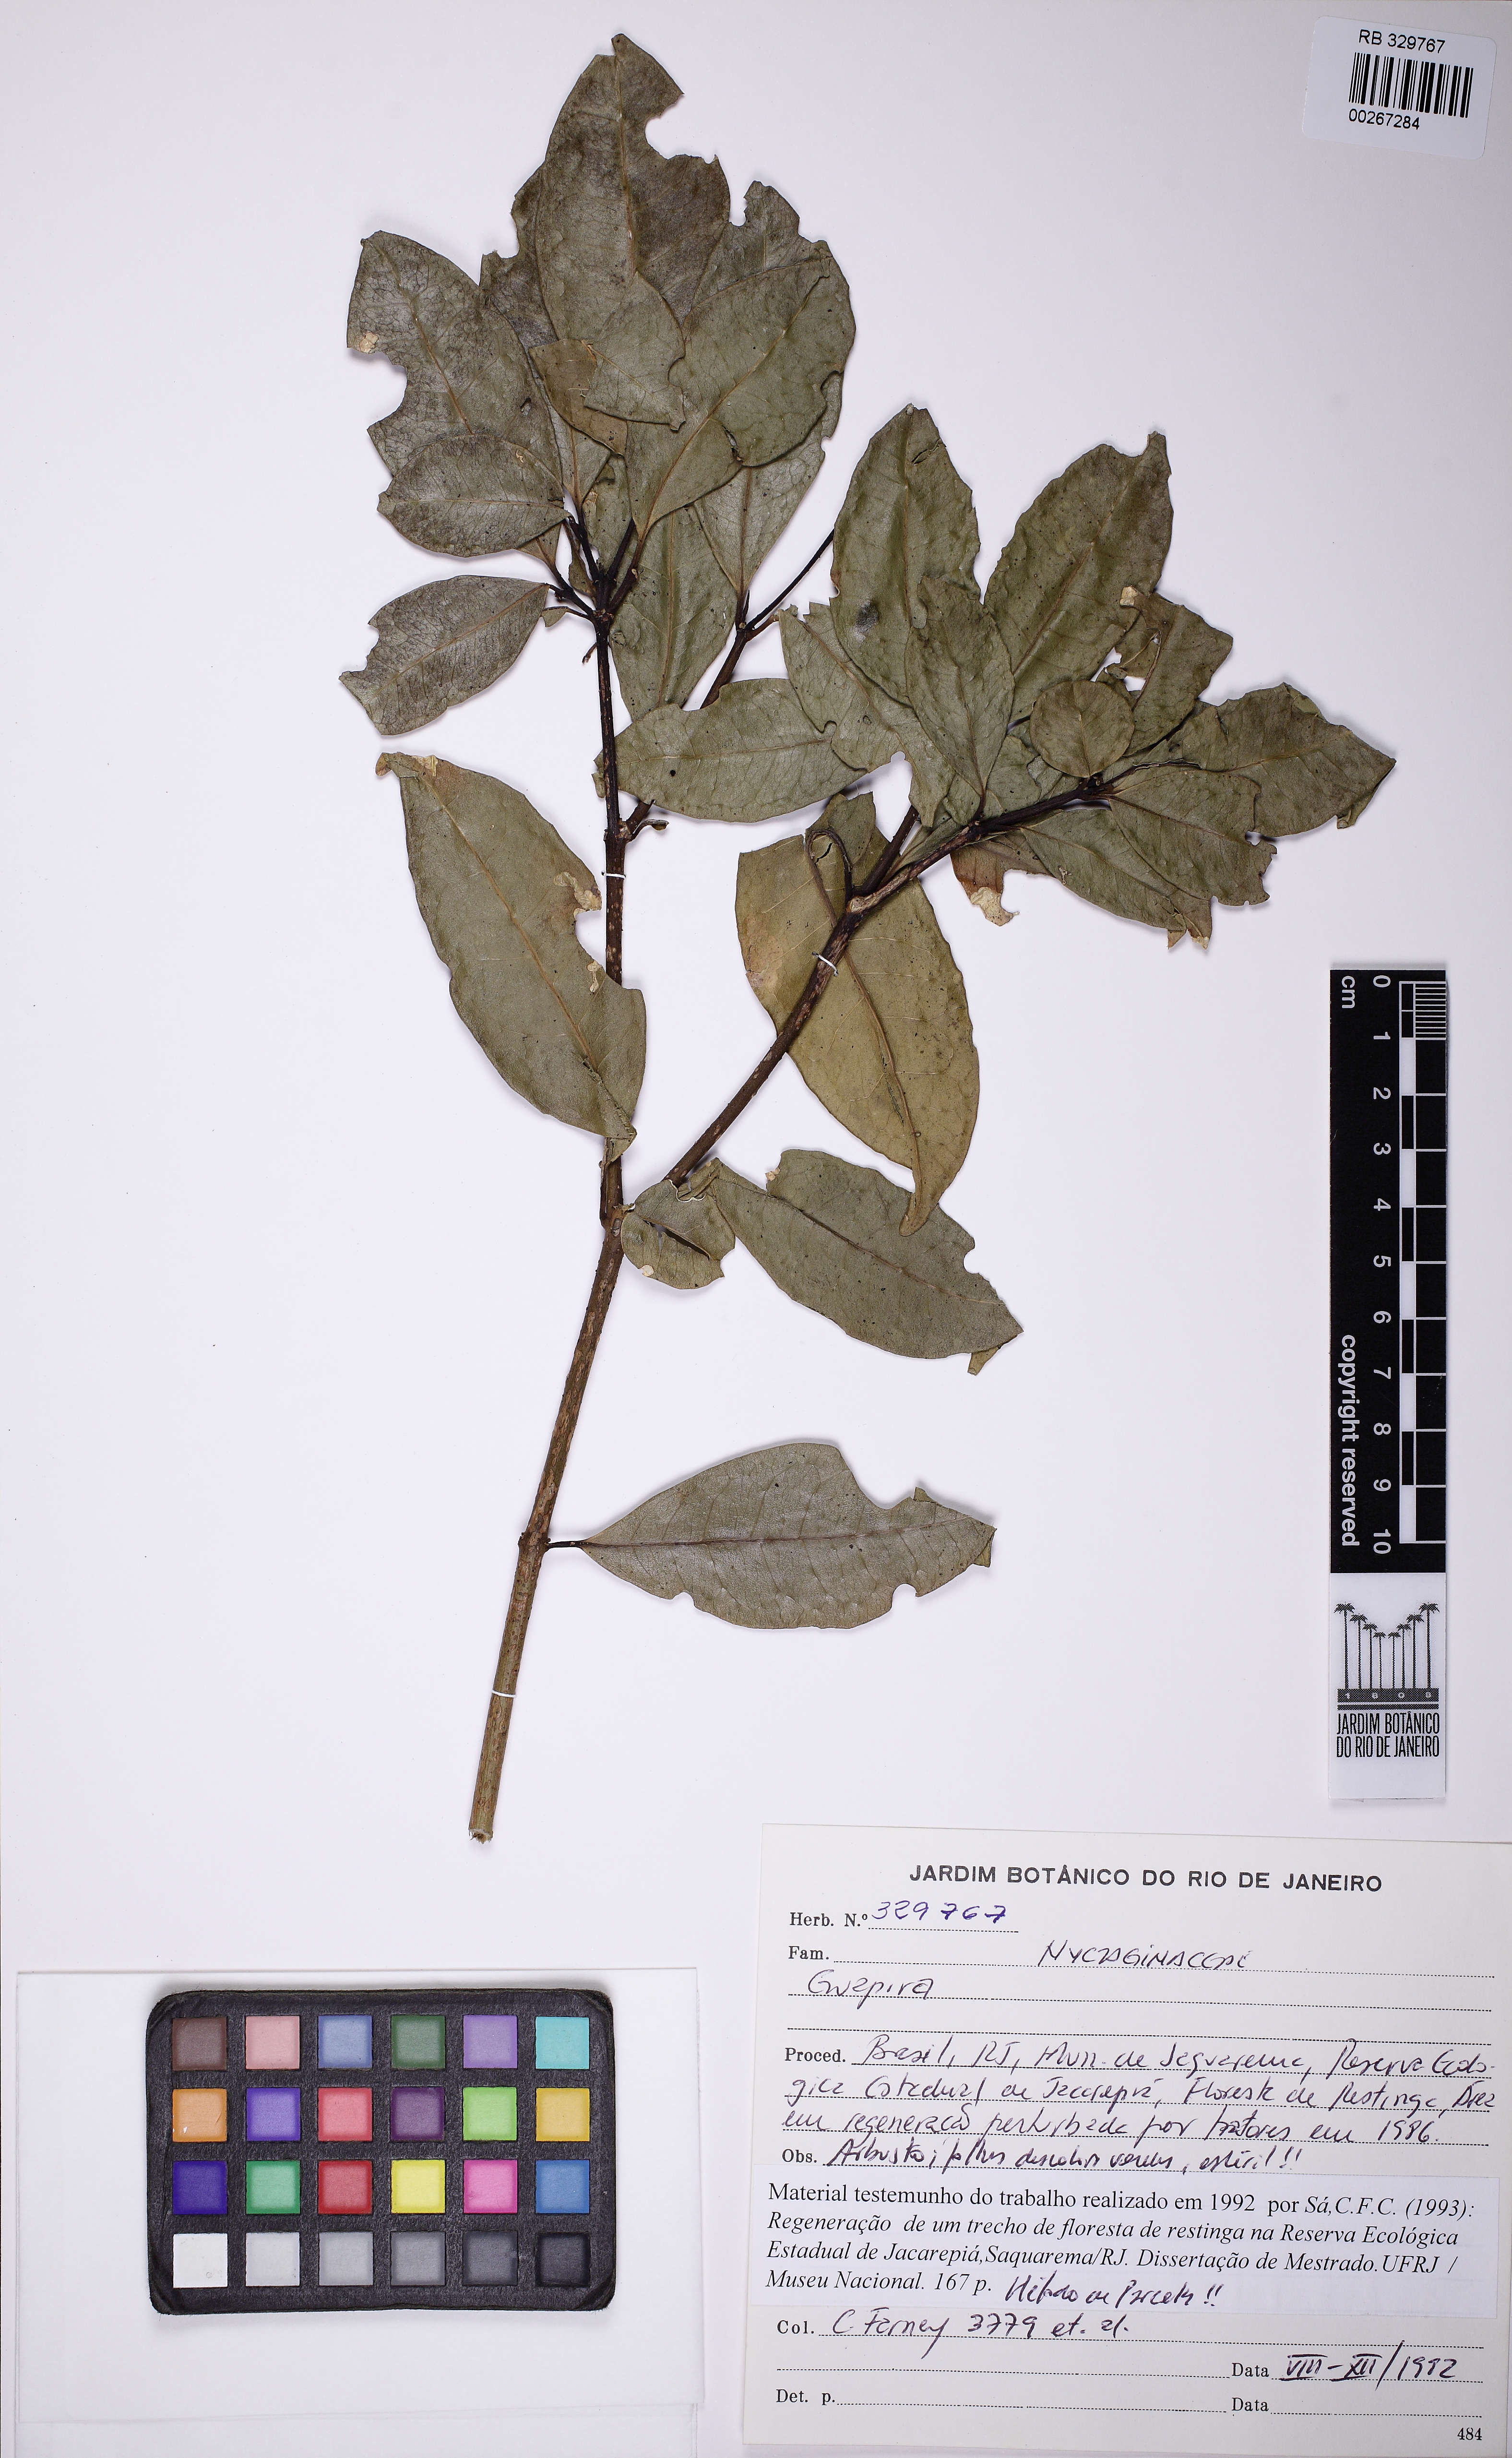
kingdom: Plantae
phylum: Tracheophyta
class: Magnoliopsida
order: Caryophyllales
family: Nyctaginaceae
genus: Guapira
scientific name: Guapira opposita
